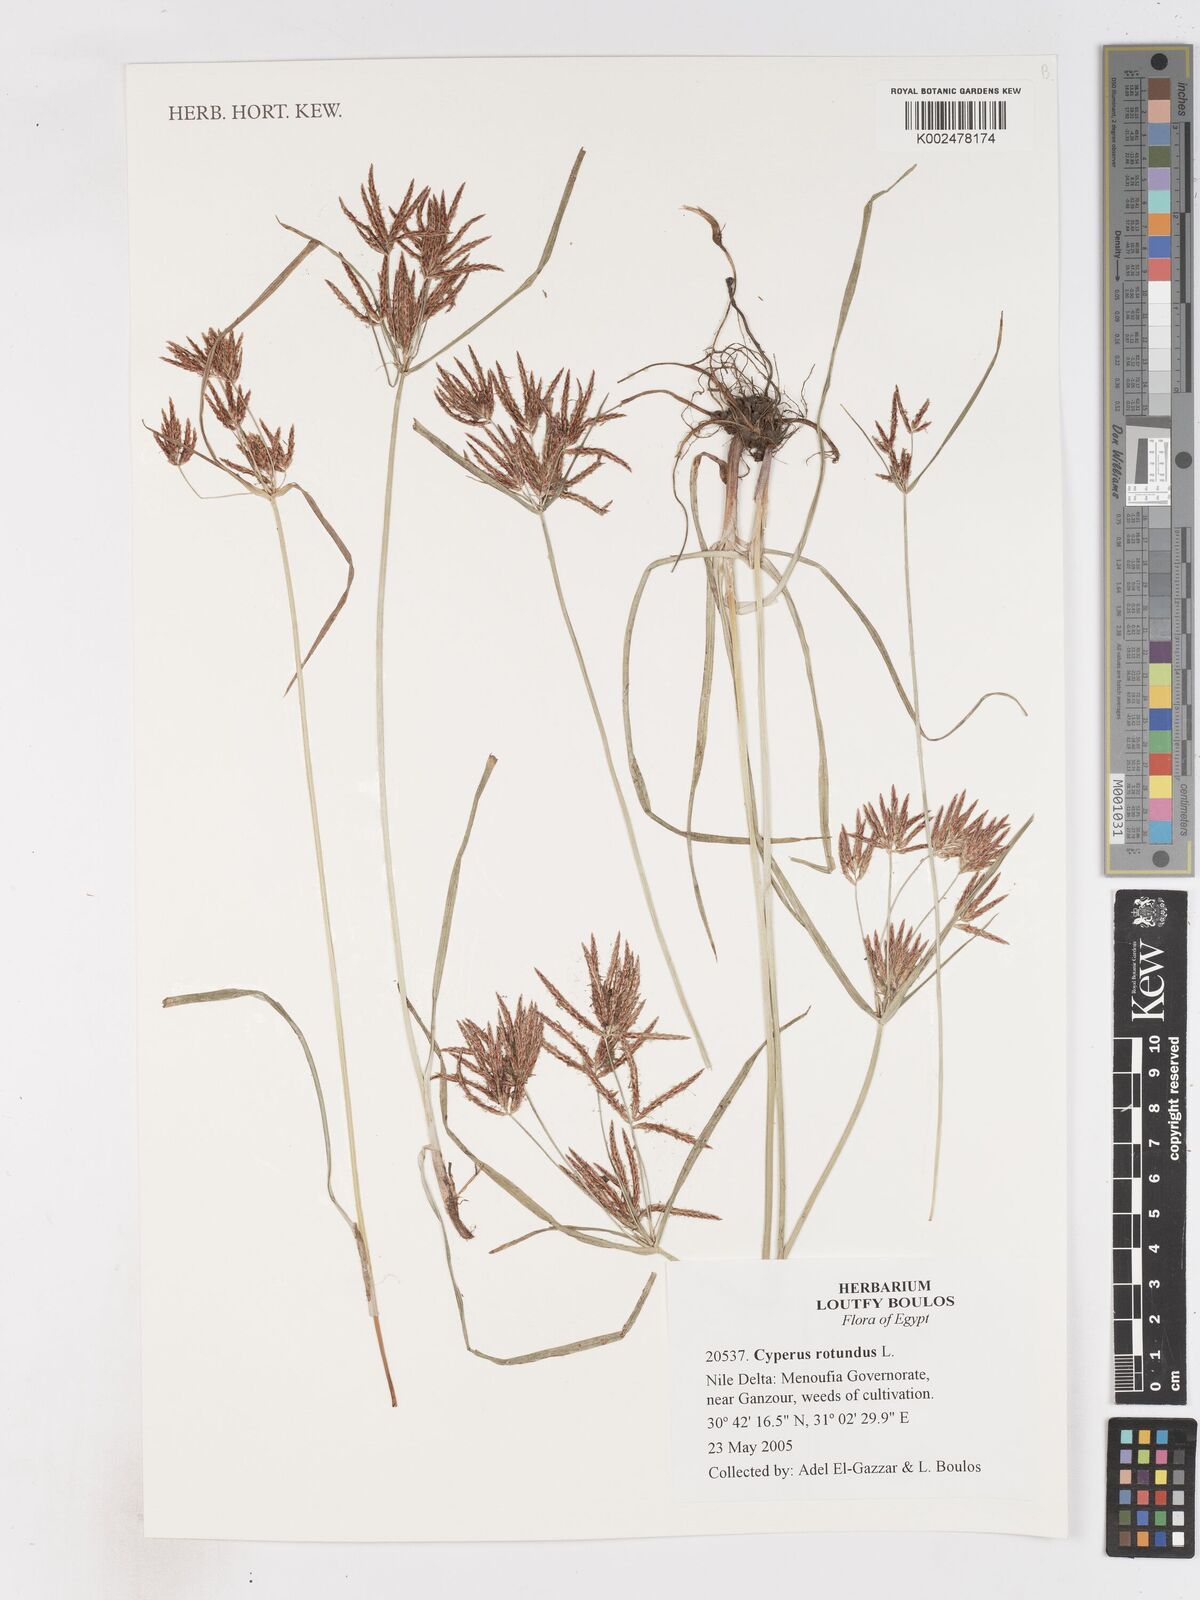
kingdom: Plantae
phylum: Tracheophyta
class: Liliopsida
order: Poales
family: Cyperaceae
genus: Cyperus
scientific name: Cyperus rotundus
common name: Nutgrass
